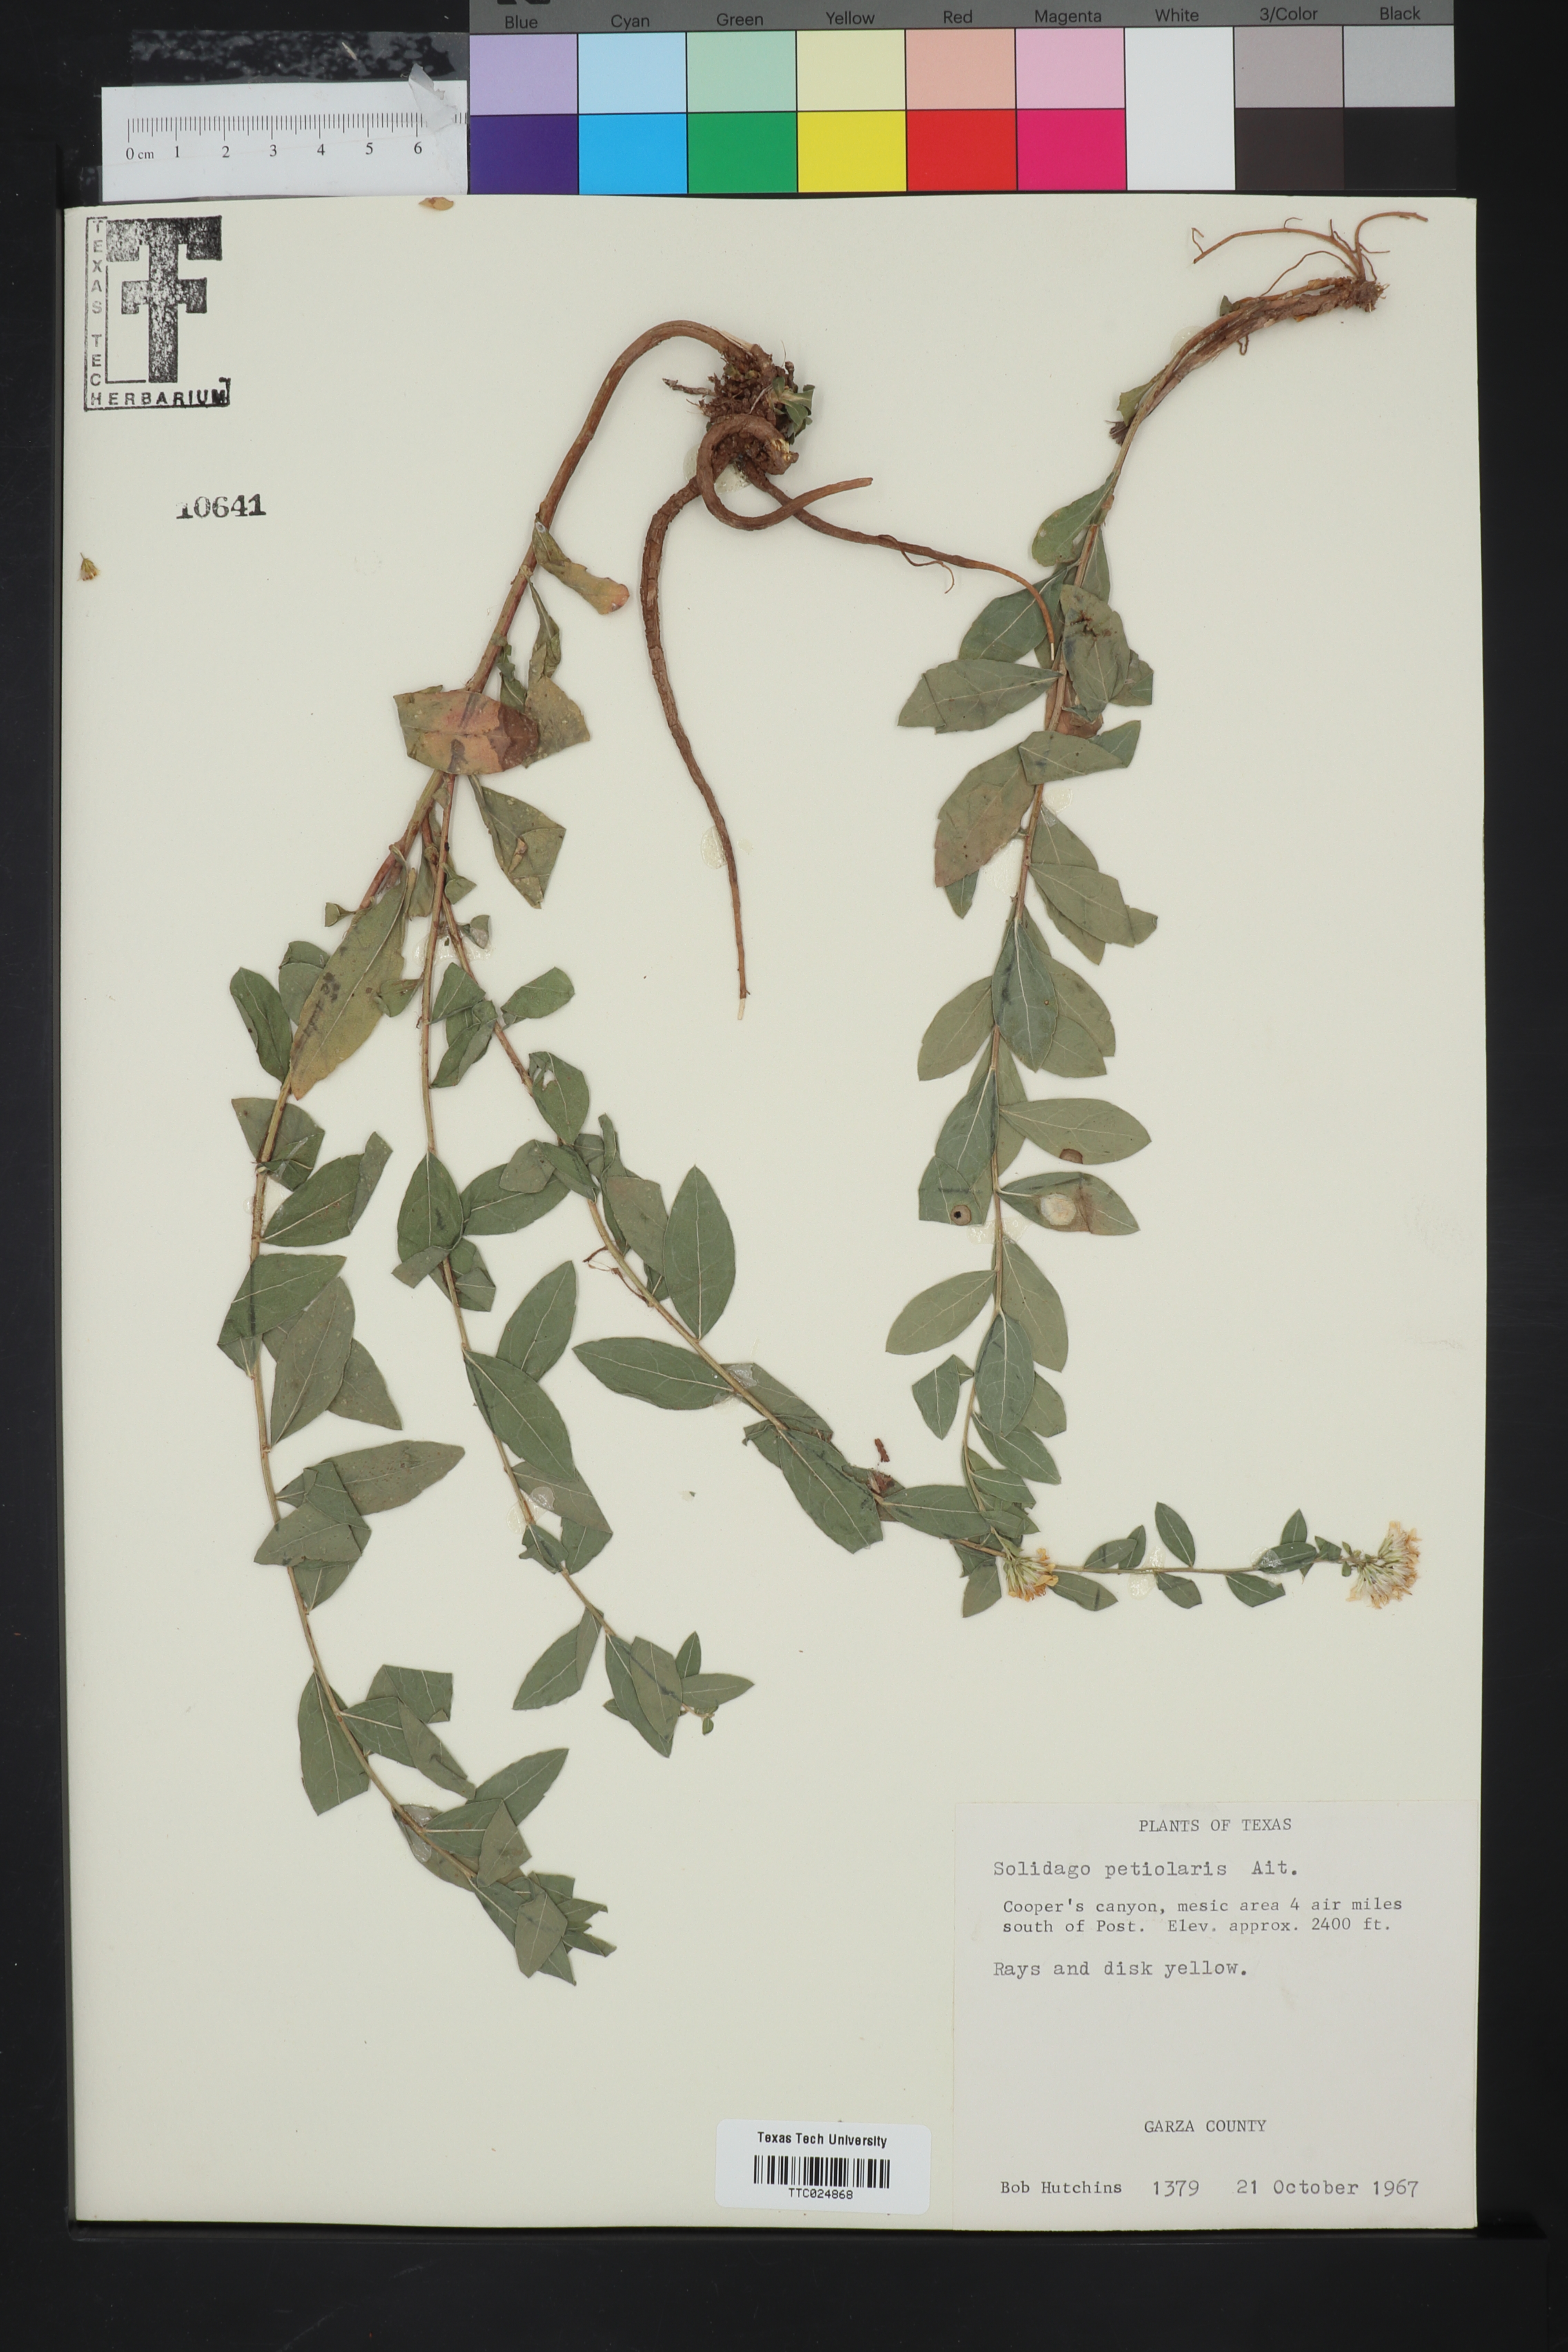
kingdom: Plantae
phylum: Tracheophyta
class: Magnoliopsida
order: Asterales
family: Asteraceae
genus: Solidago
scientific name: Solidago petiolaris
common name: Downy ragged goldenrod
